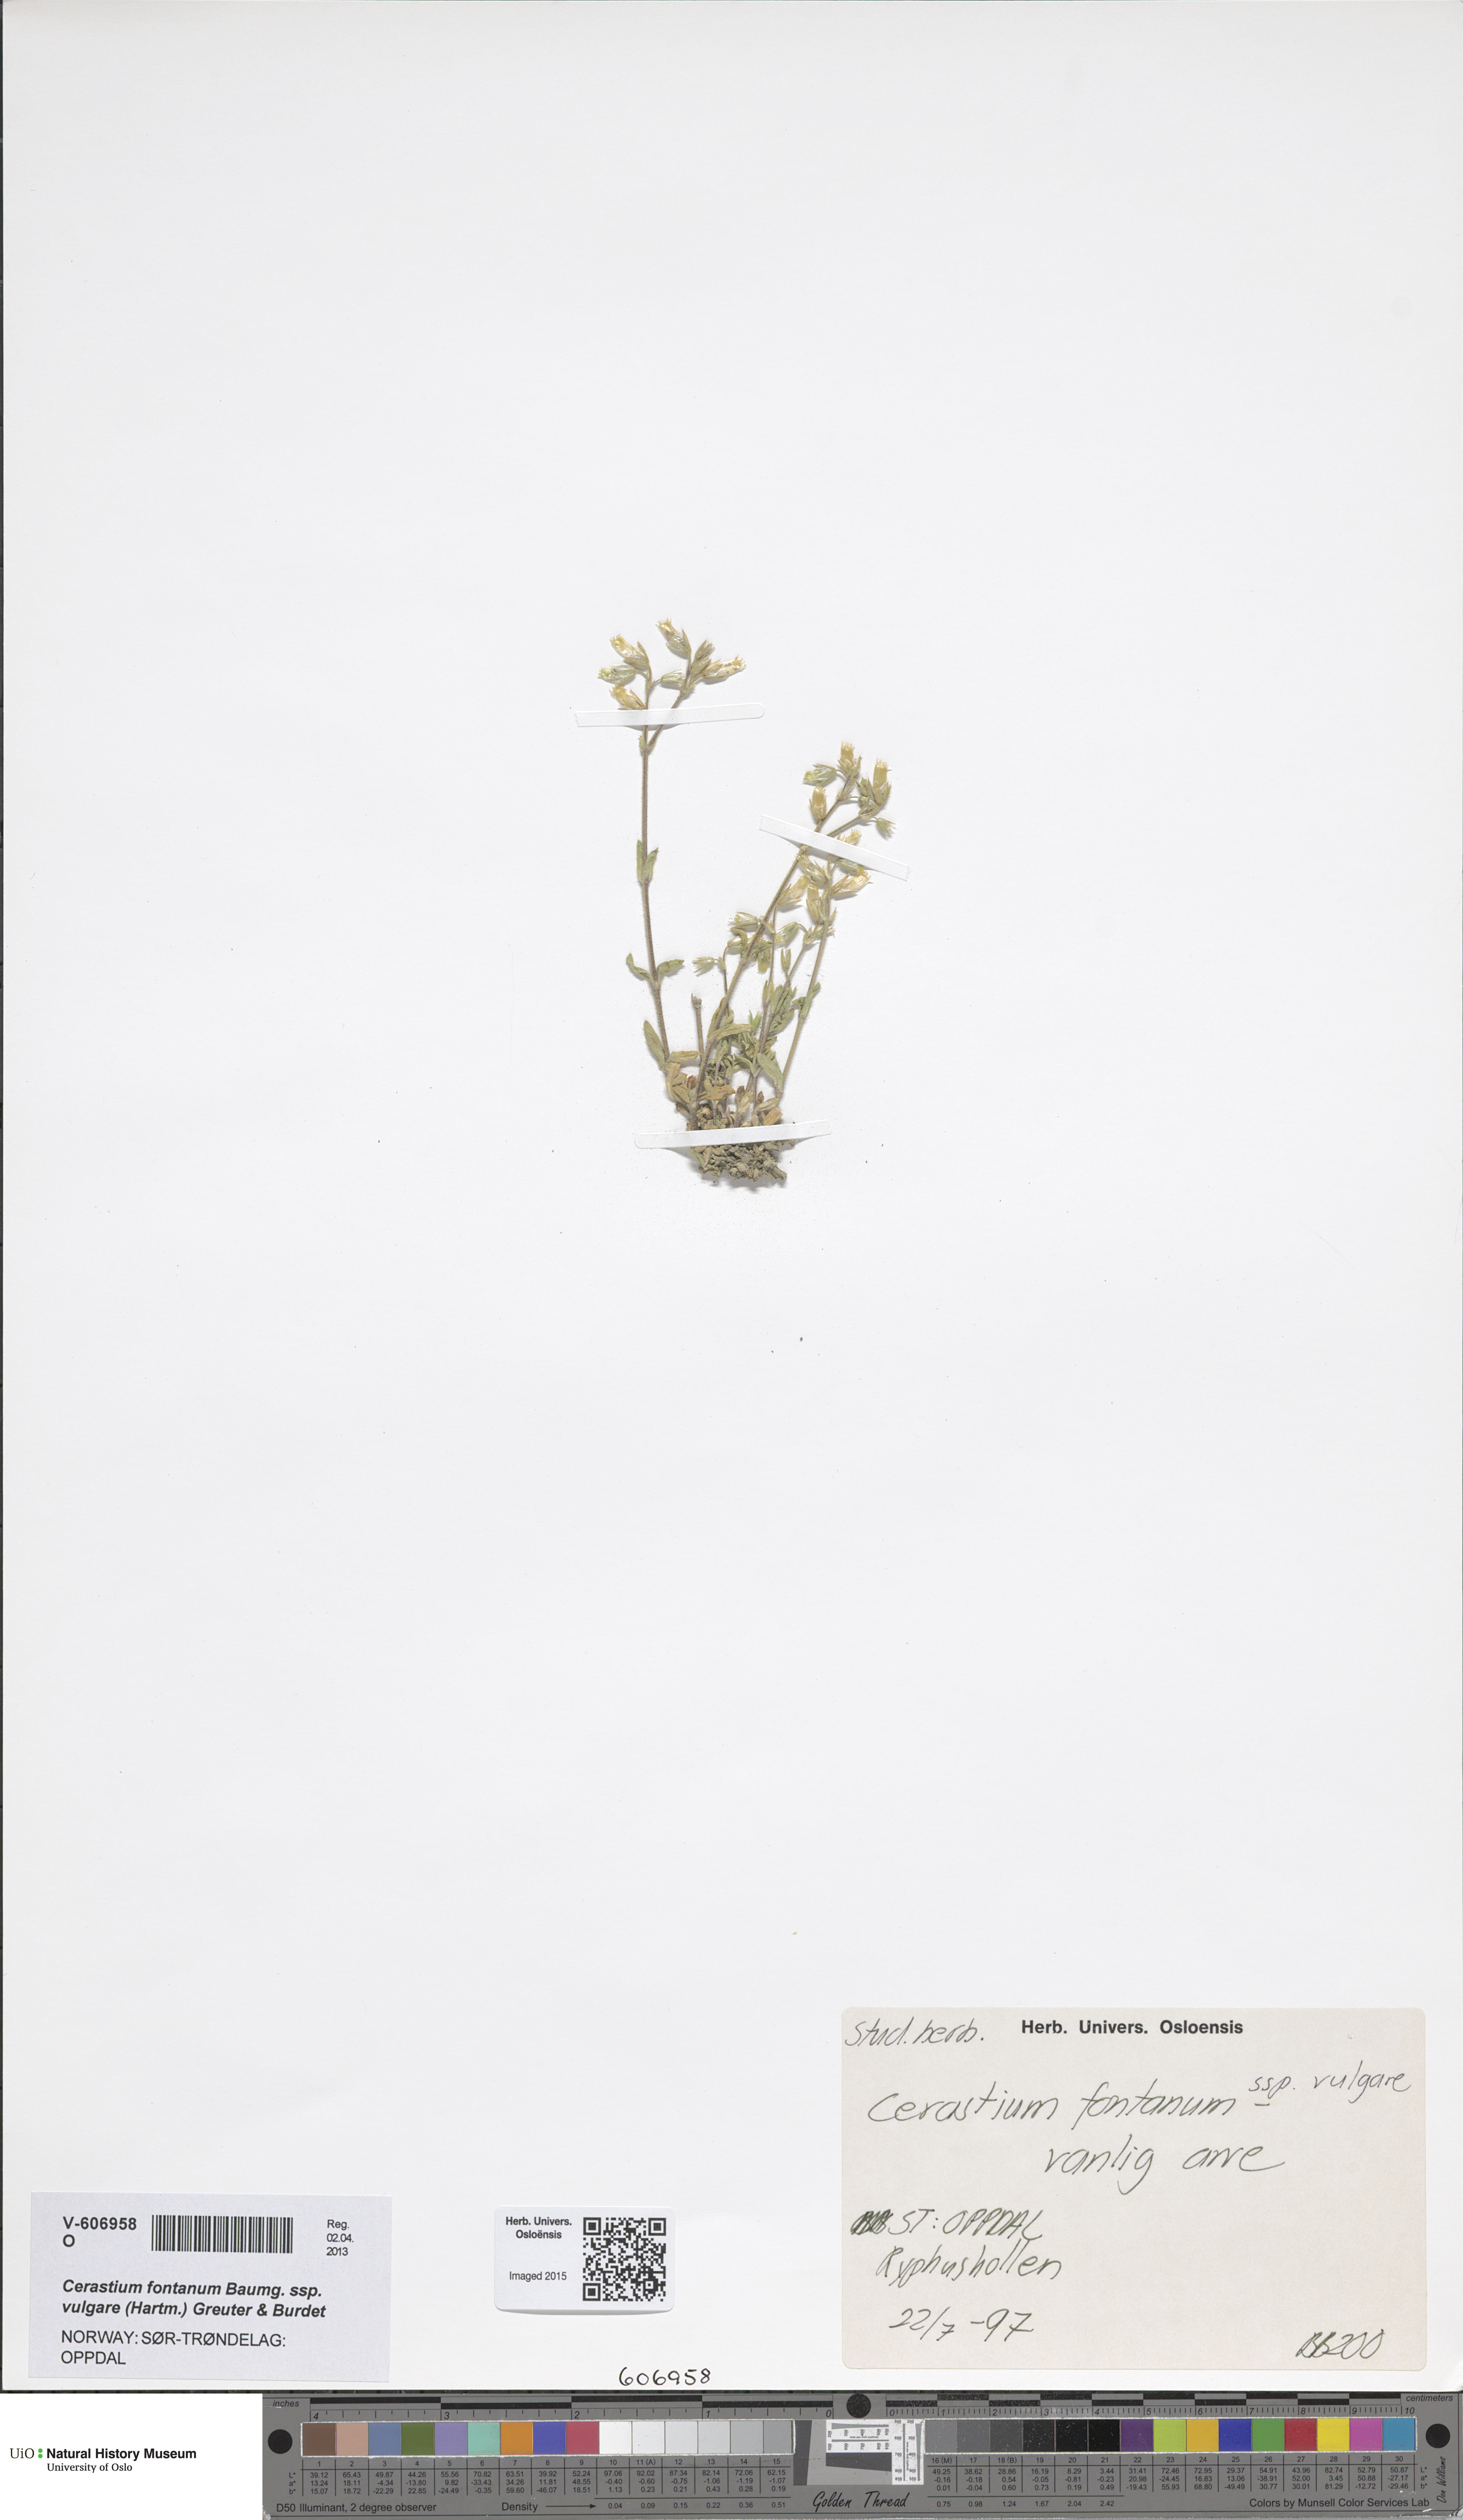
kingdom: Plantae
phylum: Tracheophyta
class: Magnoliopsida
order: Caryophyllales
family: Caryophyllaceae
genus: Cerastium
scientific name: Cerastium holosteoides
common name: Big chickweed
